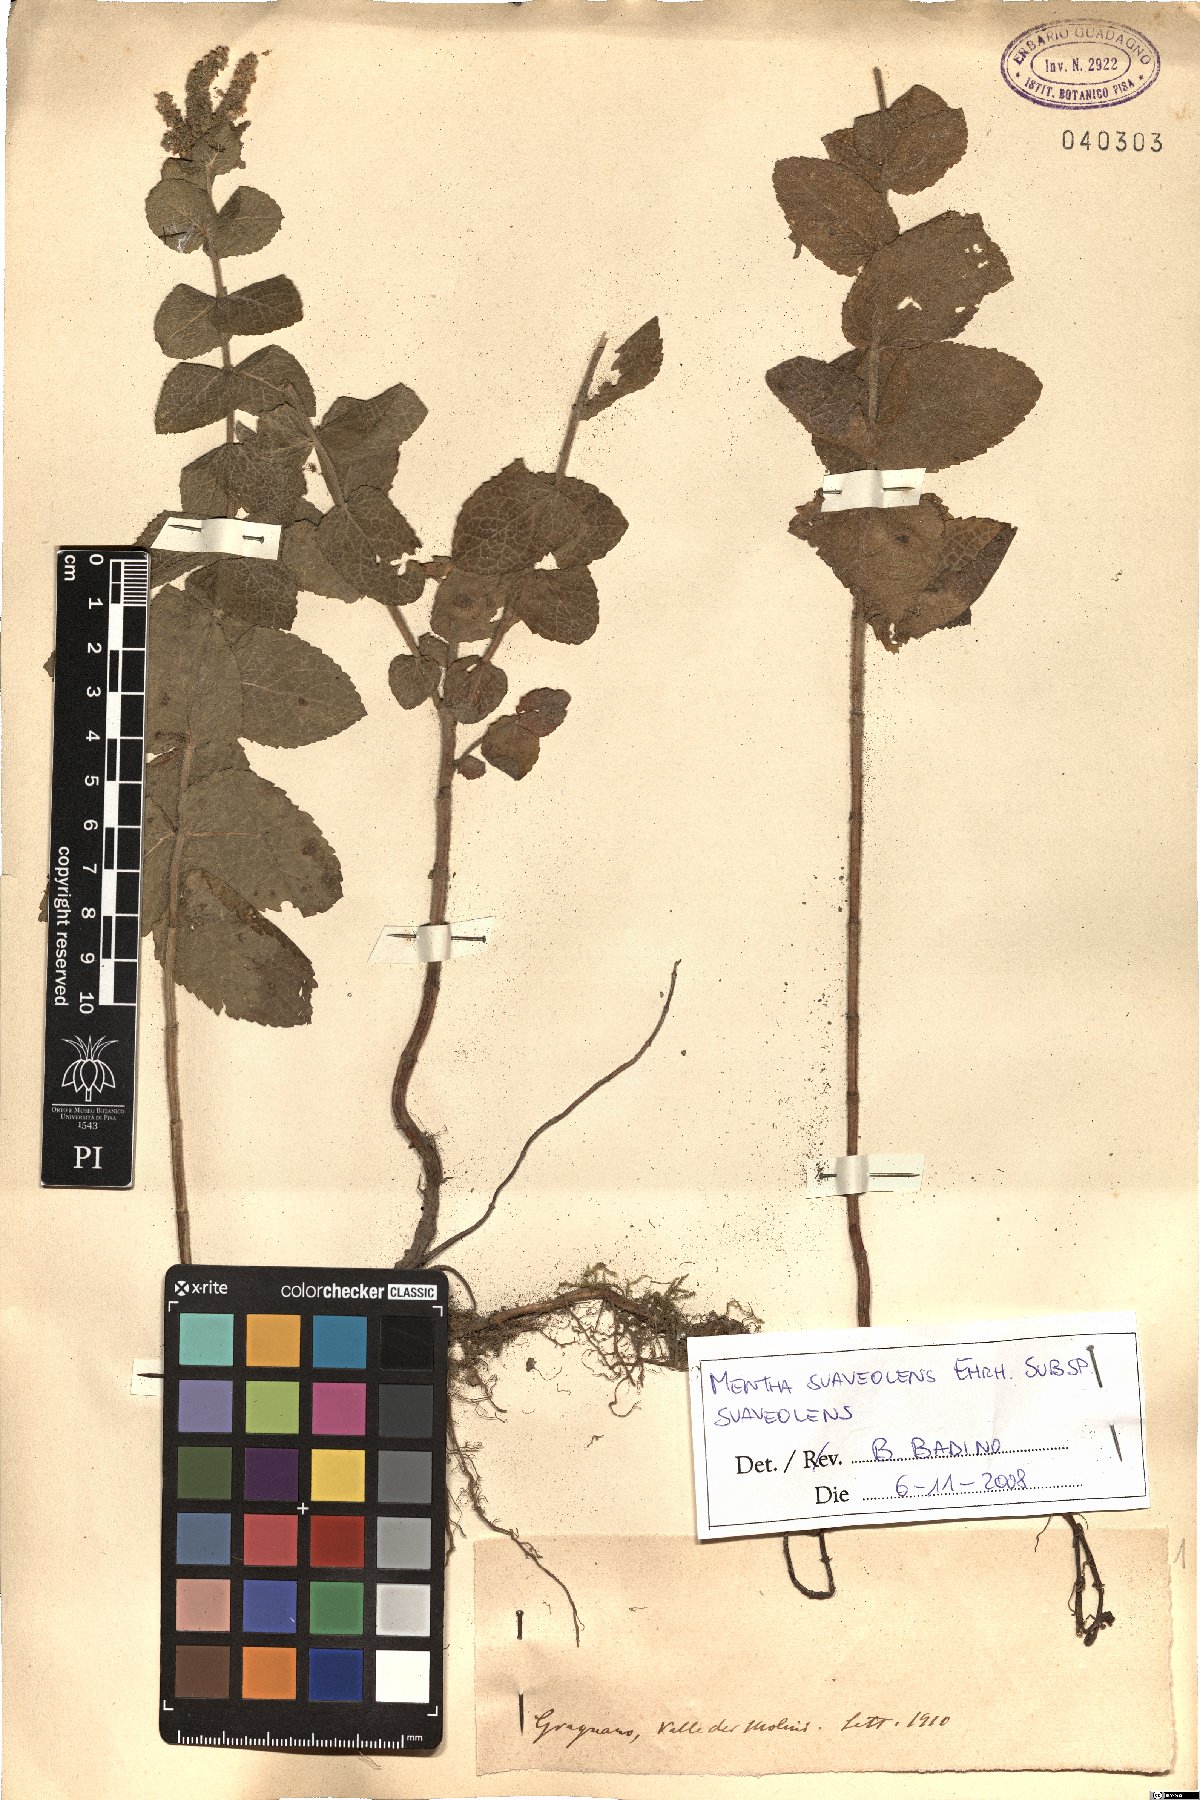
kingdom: Plantae
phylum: Tracheophyta
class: Magnoliopsida
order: Lamiales
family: Lamiaceae
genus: Mentha
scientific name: Mentha suaveolens
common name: Apple mint
